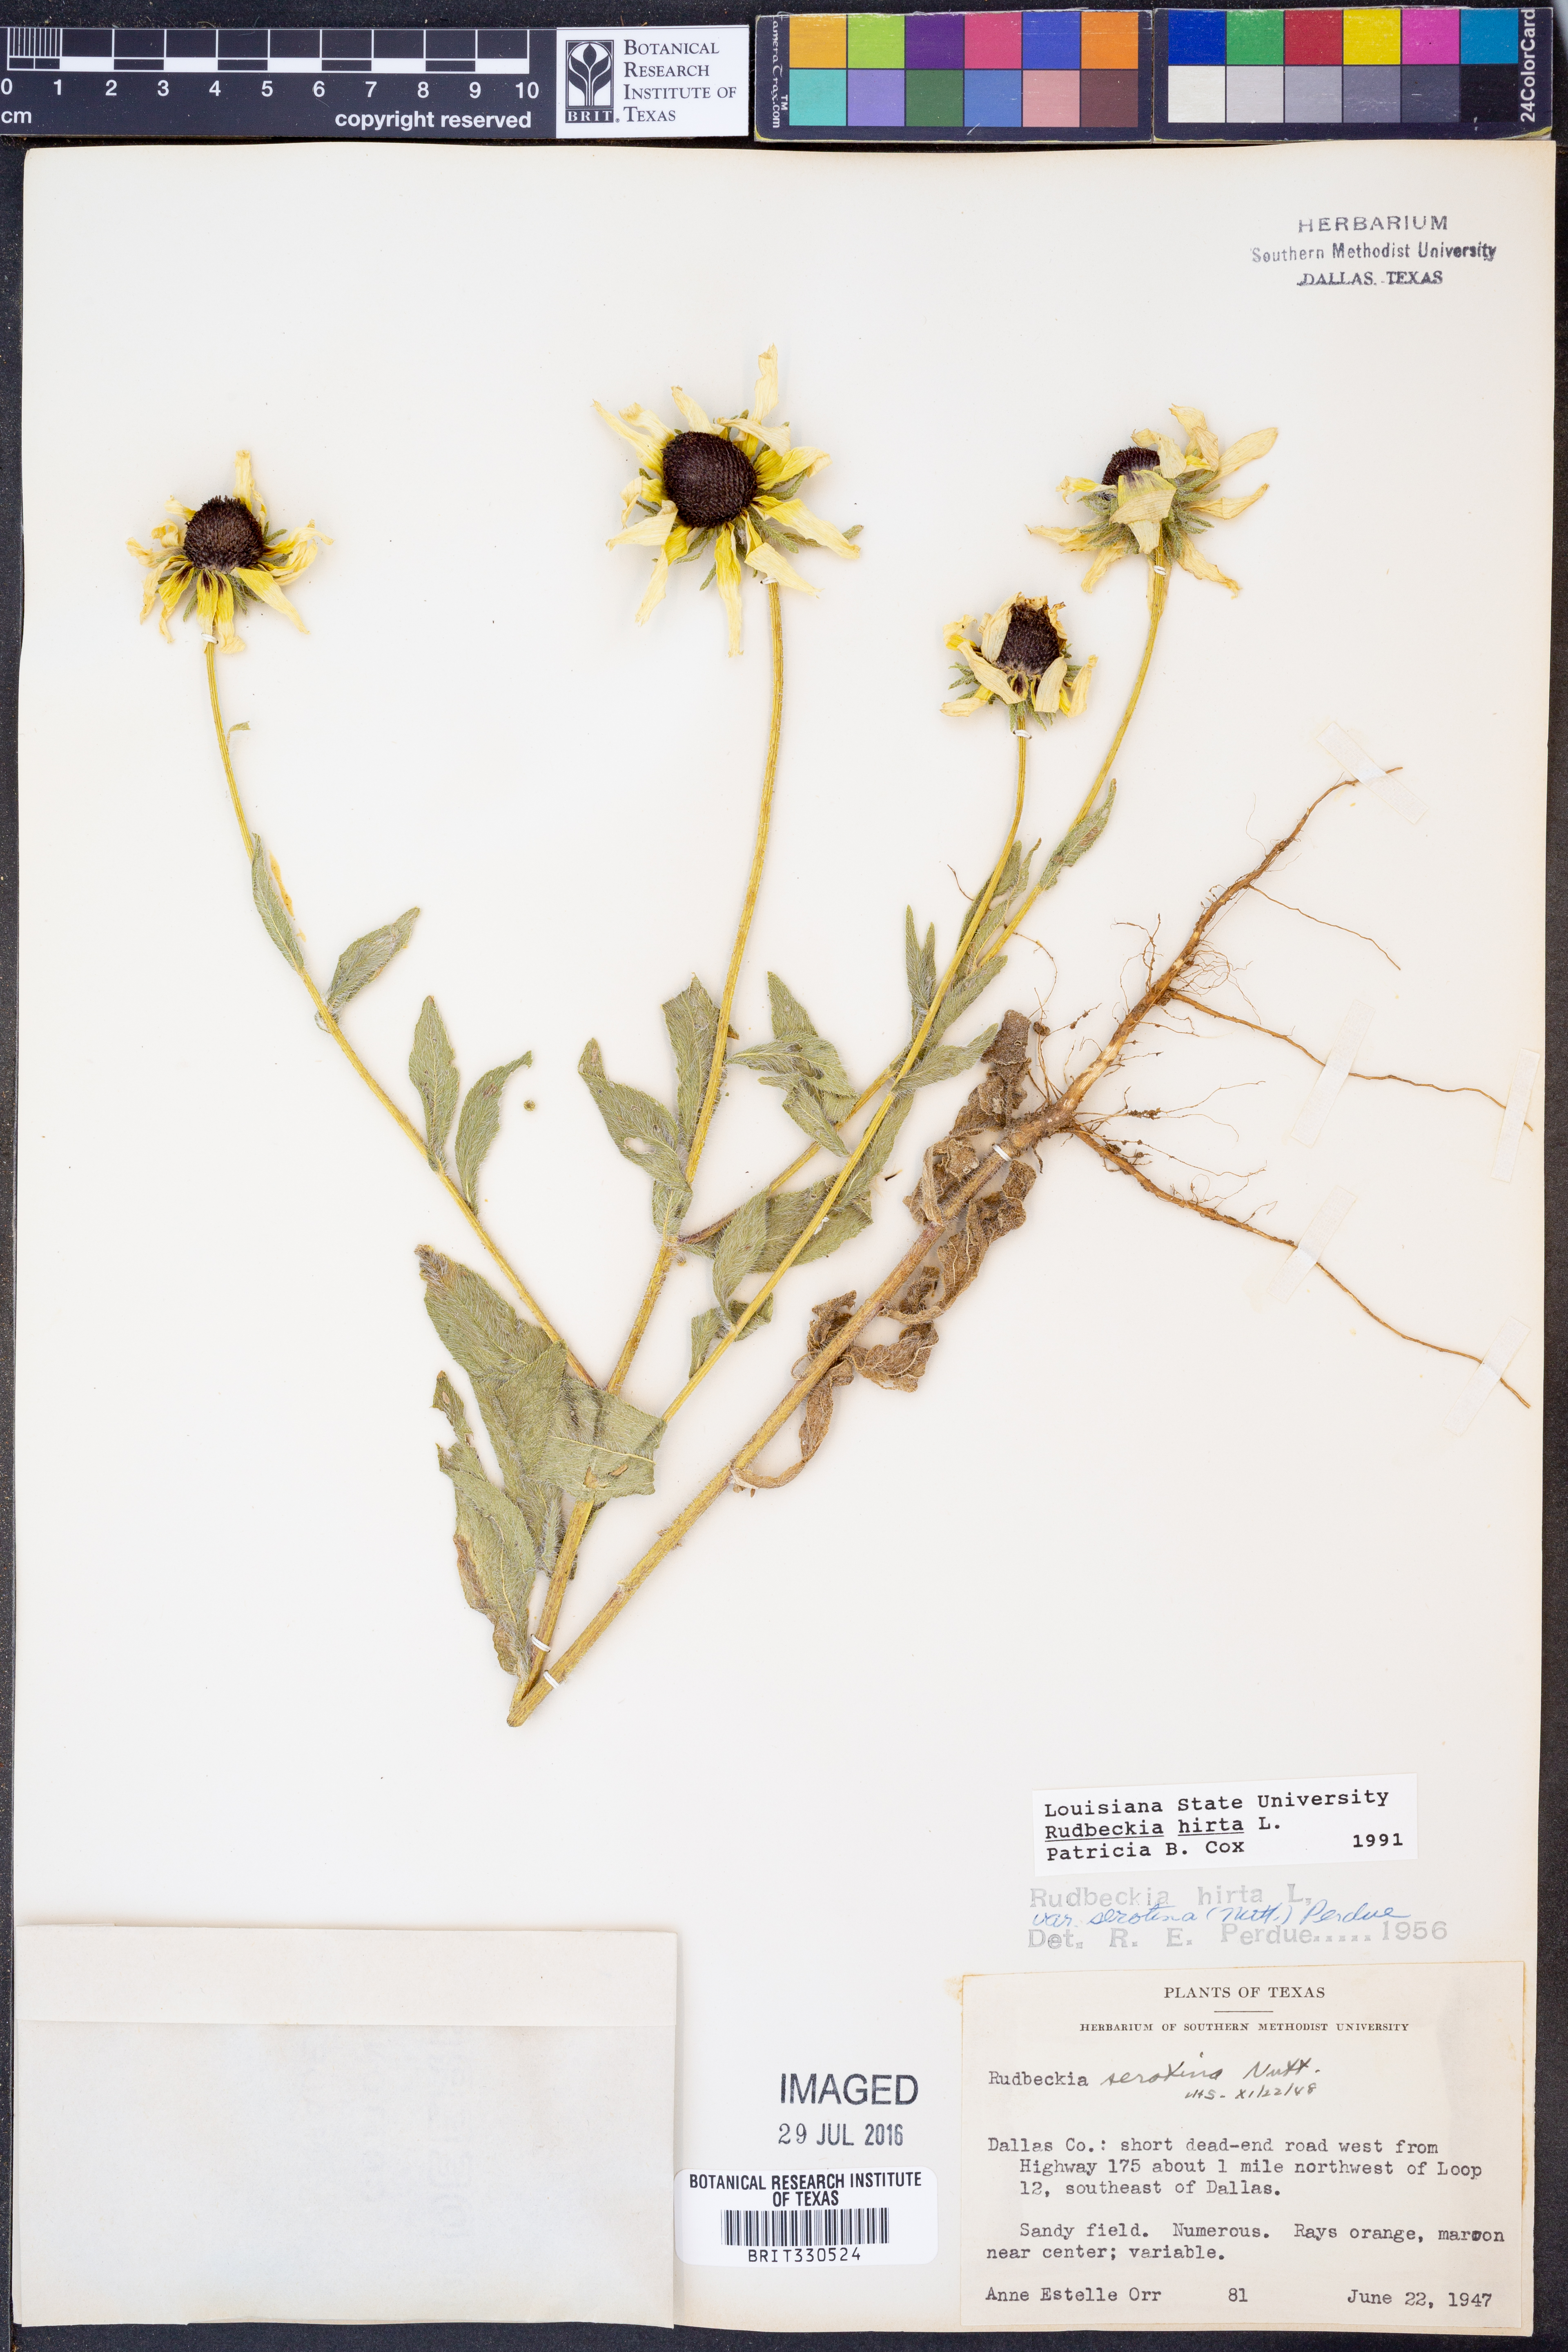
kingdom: Plantae
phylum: Tracheophyta
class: Magnoliopsida
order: Asterales
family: Asteraceae
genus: Rudbeckia
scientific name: Rudbeckia hirta
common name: Black-eyed-susan
